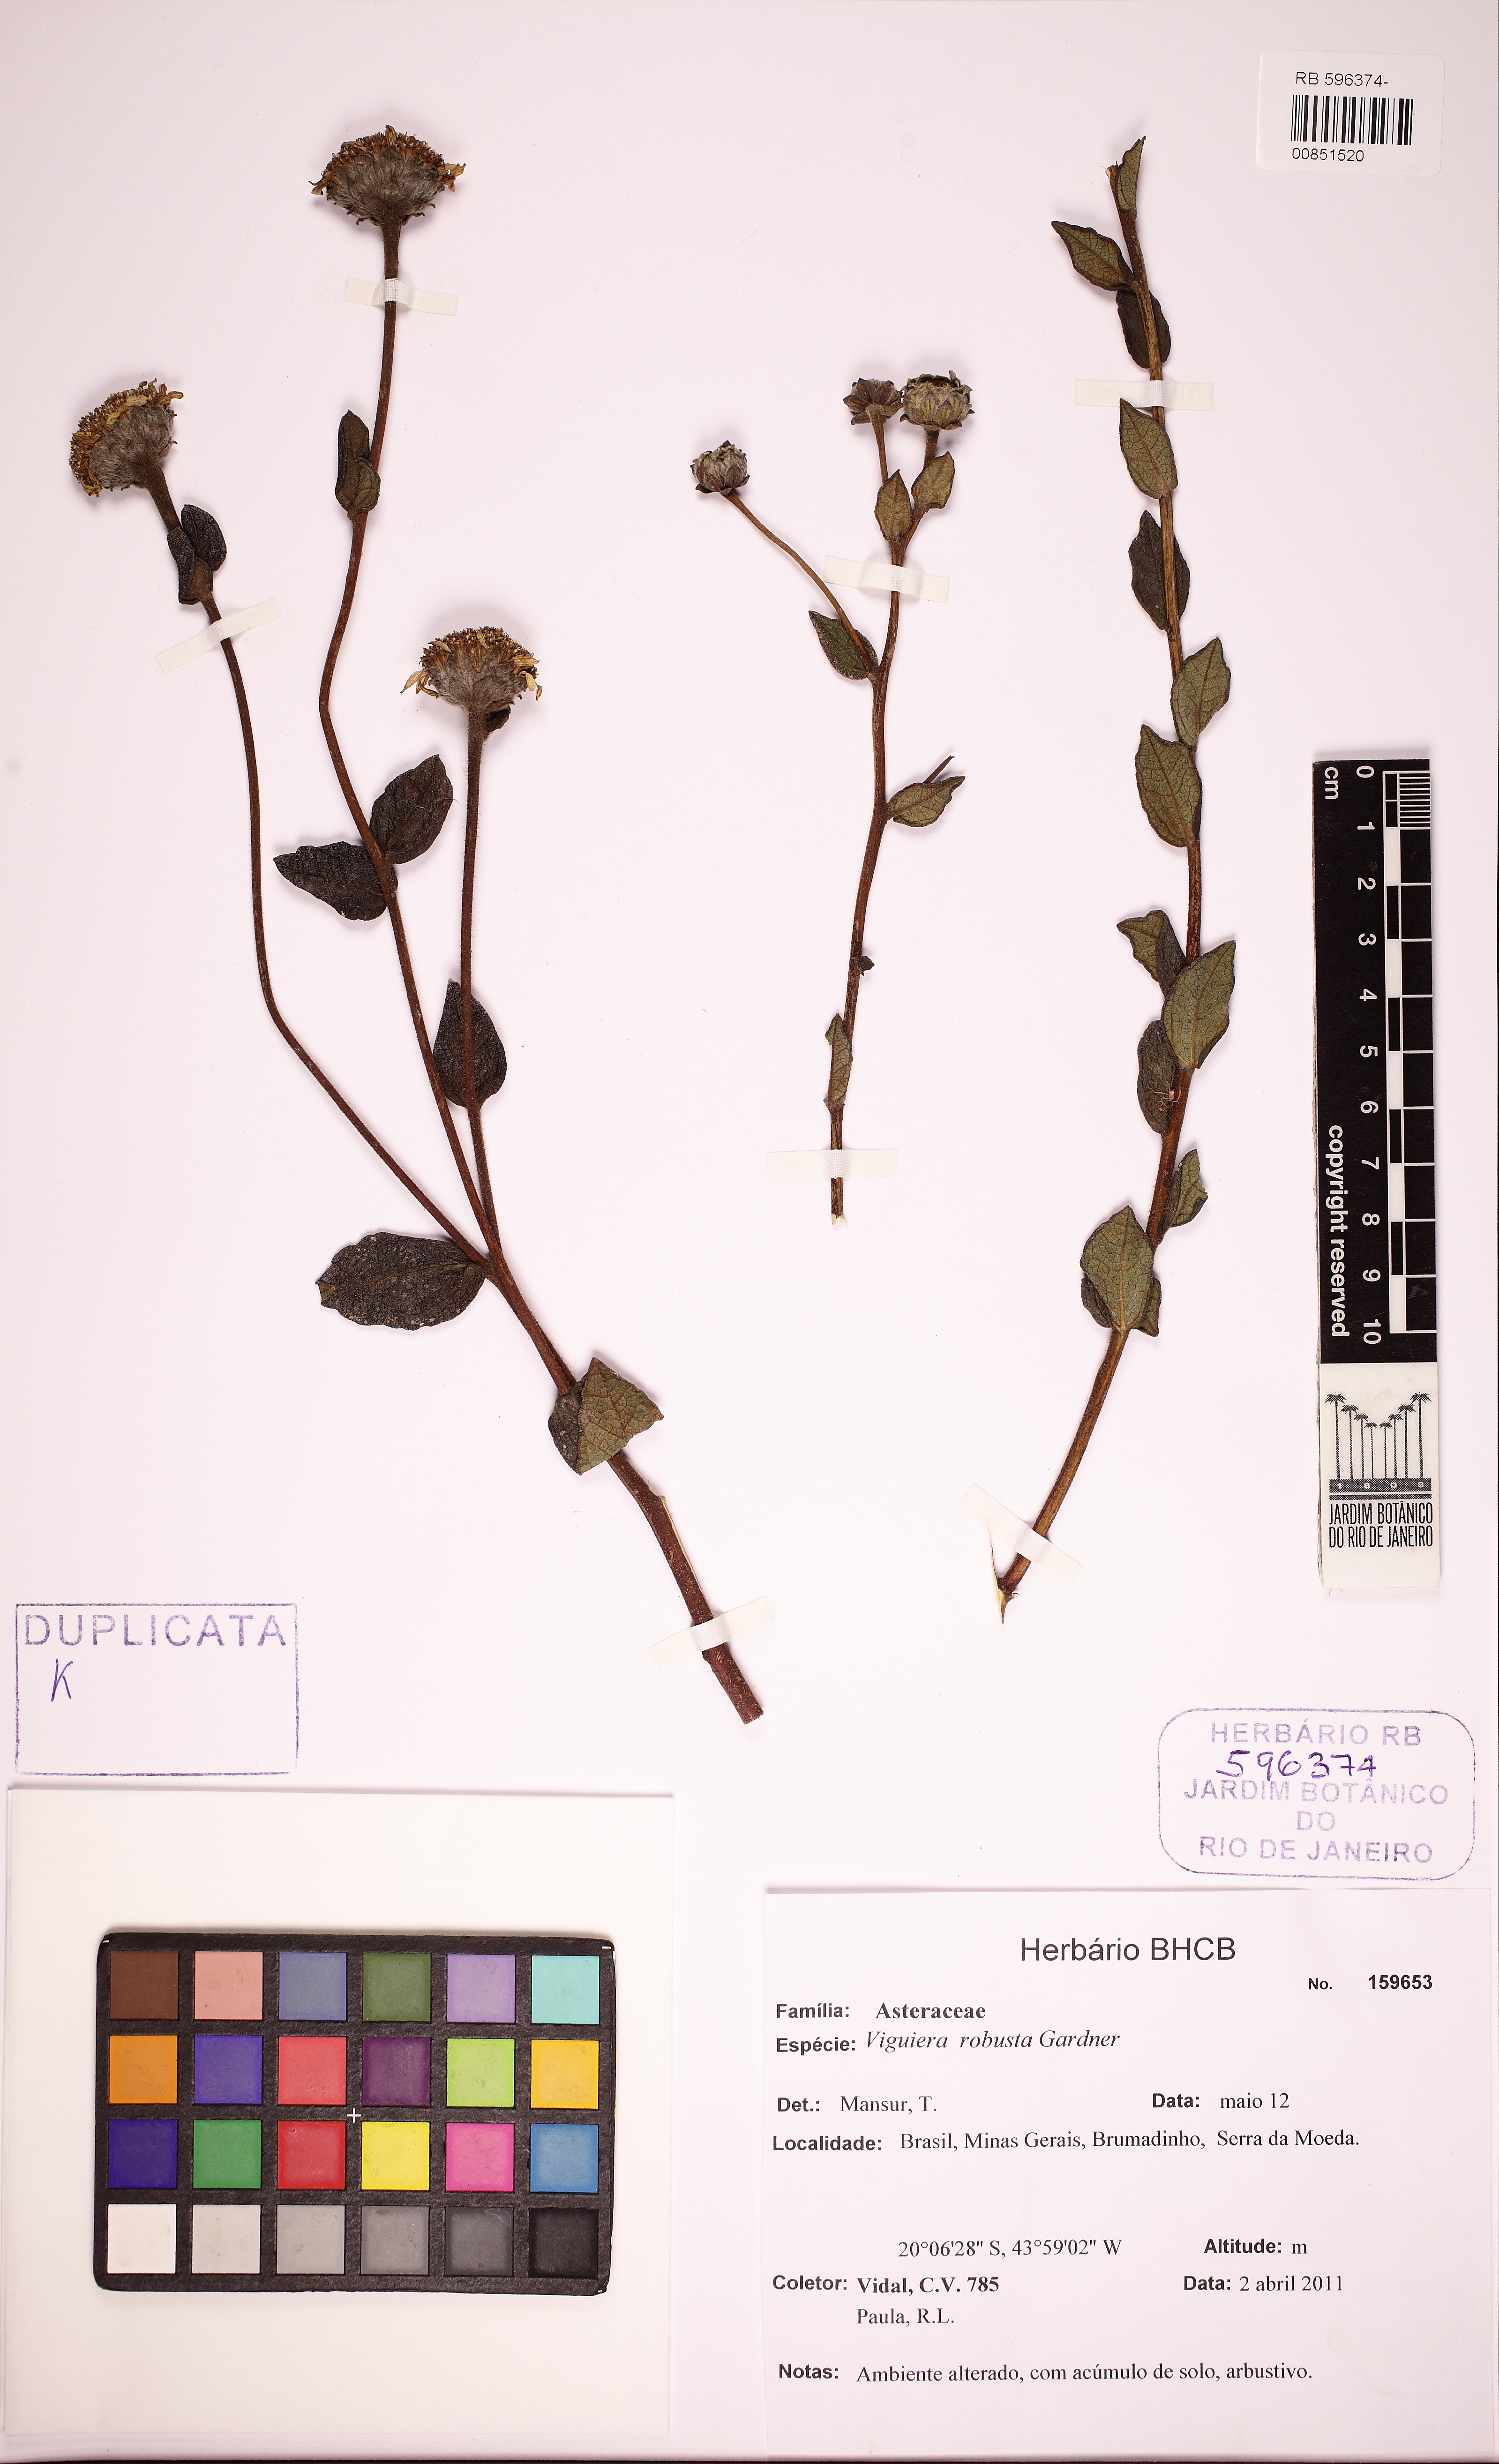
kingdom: Plantae
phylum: Tracheophyta
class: Magnoliopsida
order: Asterales
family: Asteraceae
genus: Aldama
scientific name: Aldama robusta
